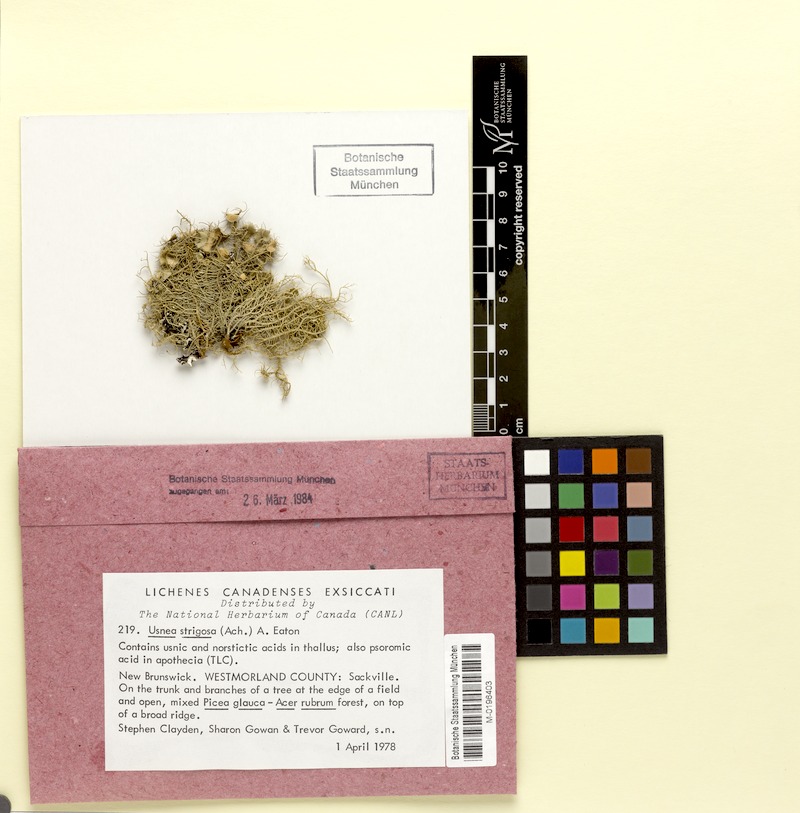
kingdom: Fungi
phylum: Ascomycota
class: Lecanoromycetes
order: Lecanorales
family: Parmeliaceae
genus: Usnea
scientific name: Usnea strigosa
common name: Bushy beard lichen
